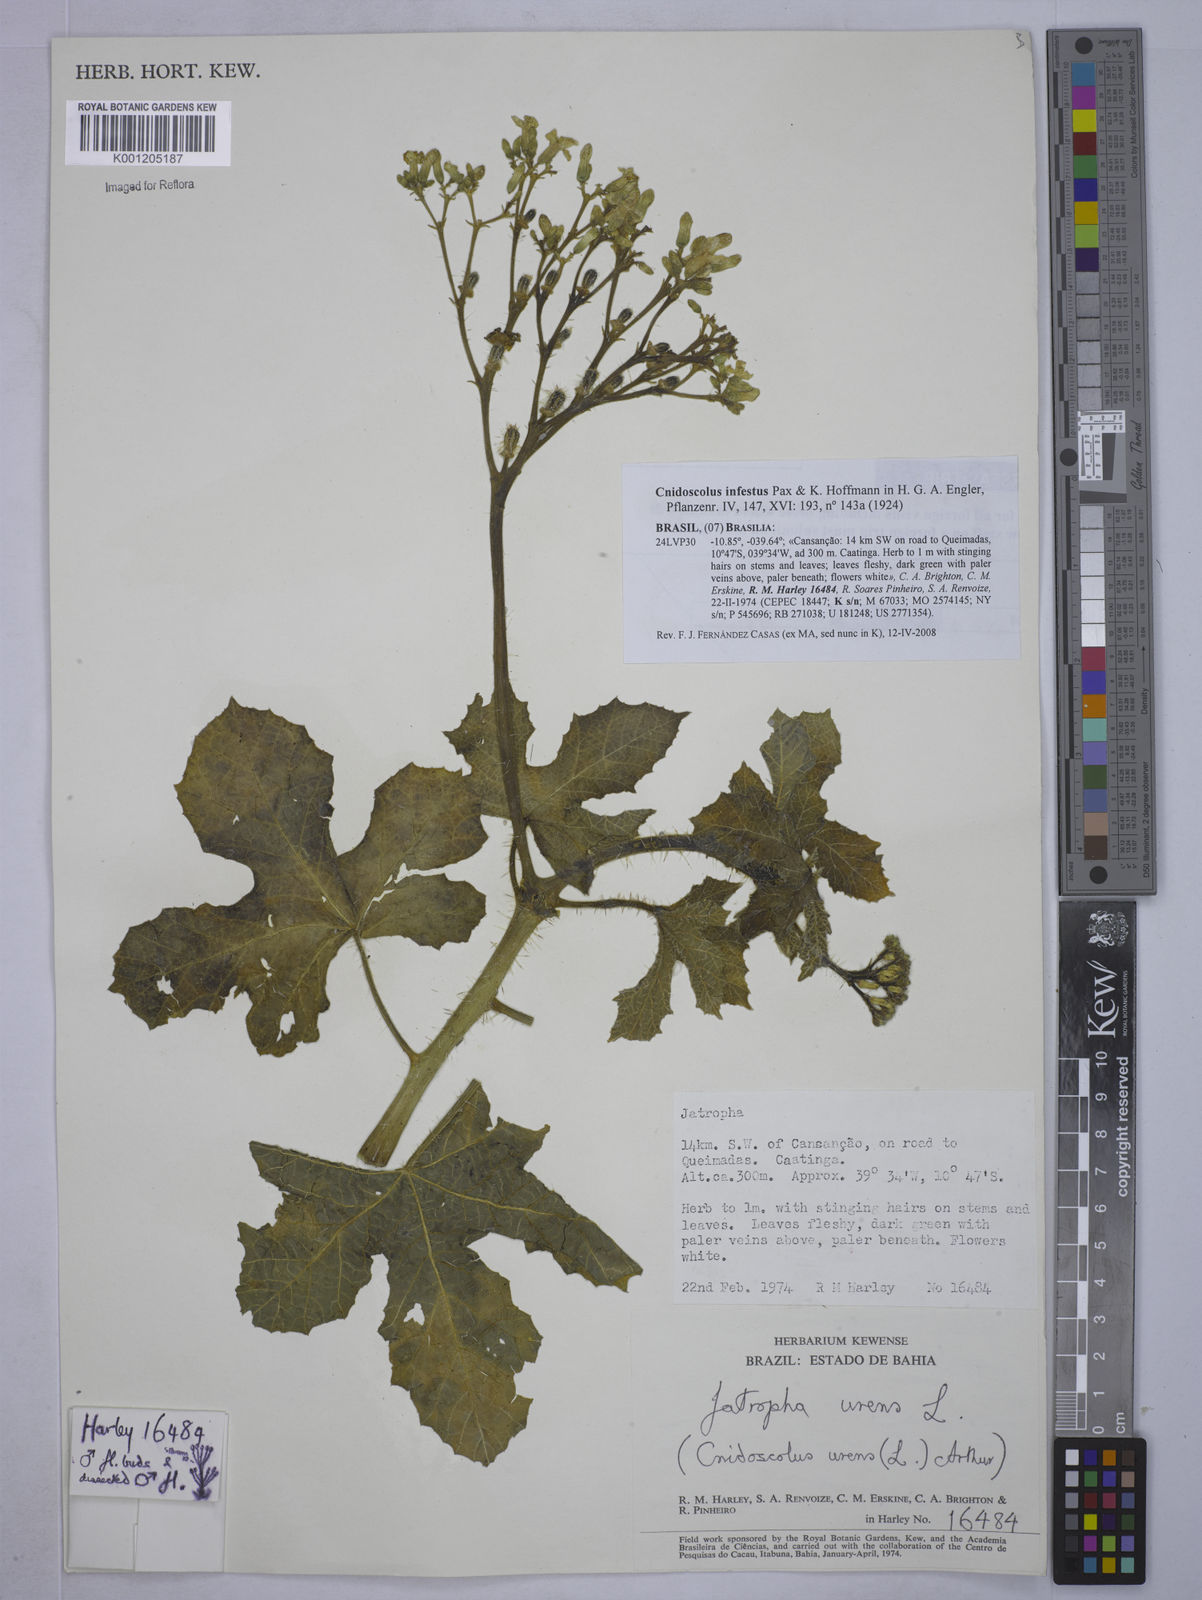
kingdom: Plantae
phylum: Tracheophyta
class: Magnoliopsida
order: Malpighiales
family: Euphorbiaceae
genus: Cnidoscolus
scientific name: Cnidoscolus infestus
